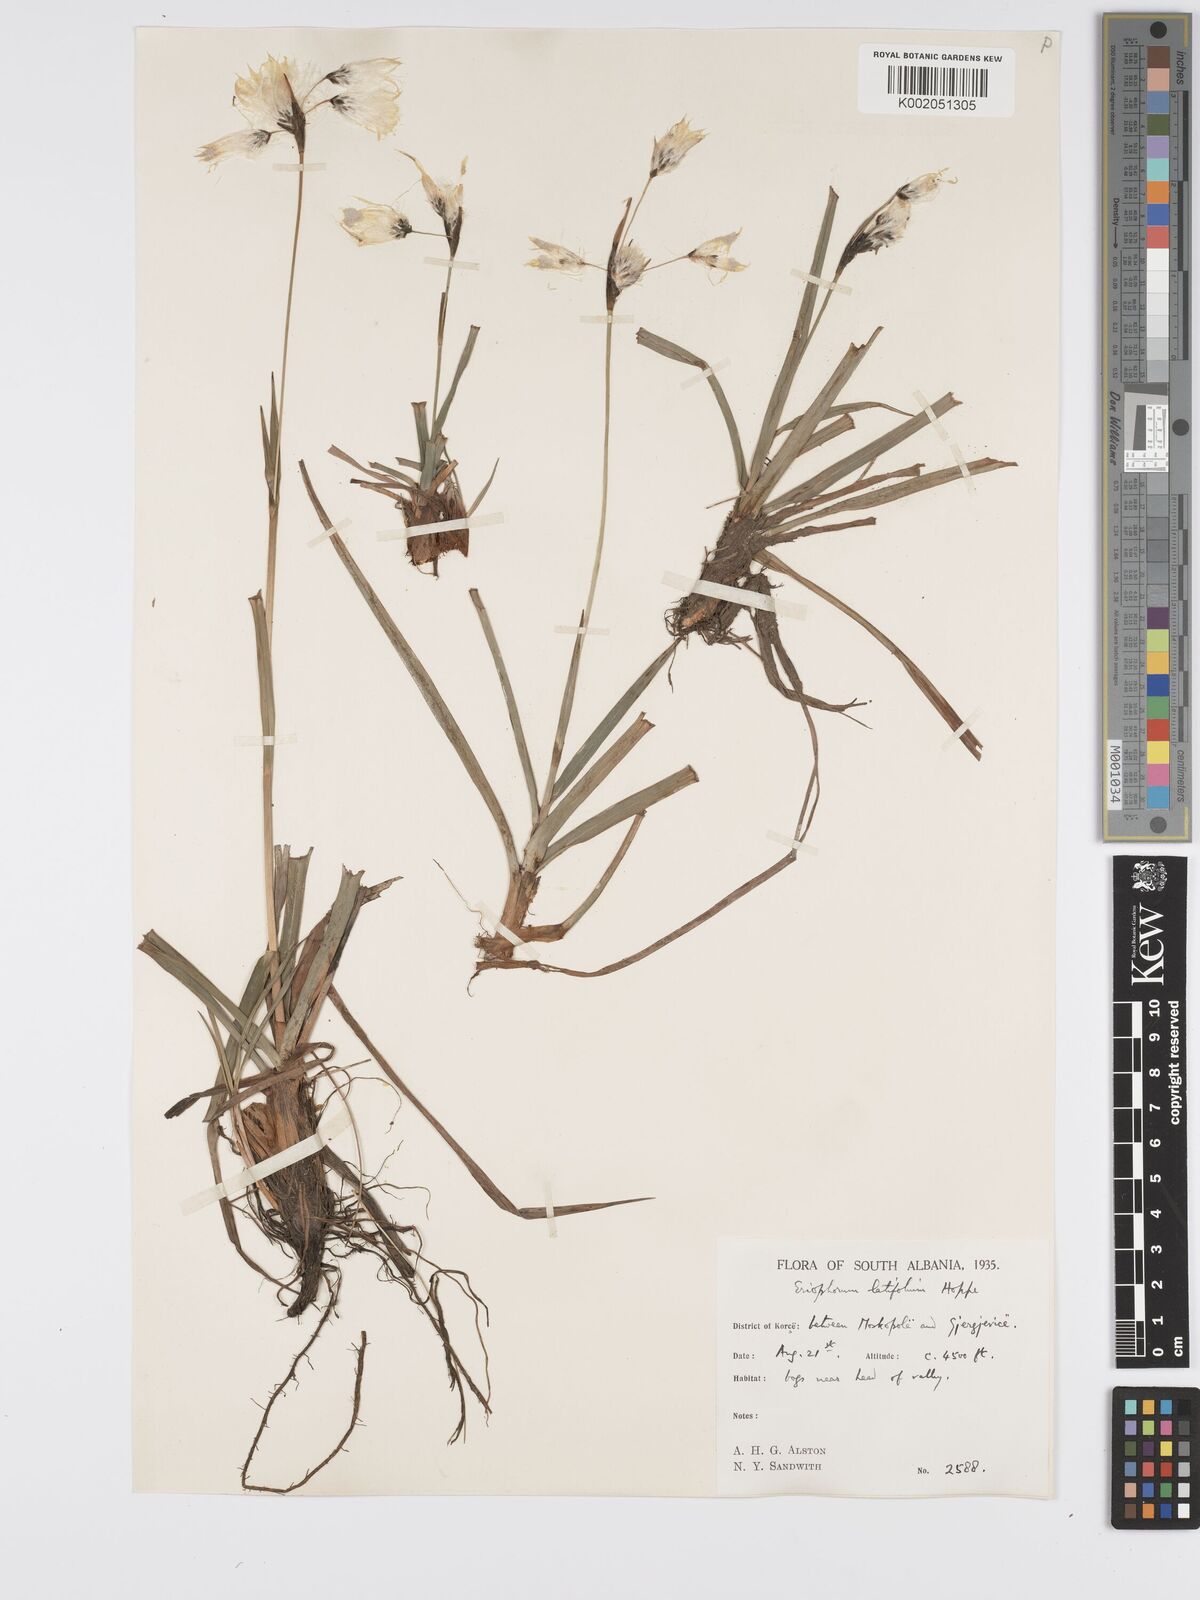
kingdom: Plantae
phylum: Tracheophyta
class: Liliopsida
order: Poales
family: Cyperaceae
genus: Eriophorum
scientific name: Eriophorum latifolium
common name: Broad-leaved cottongrass
